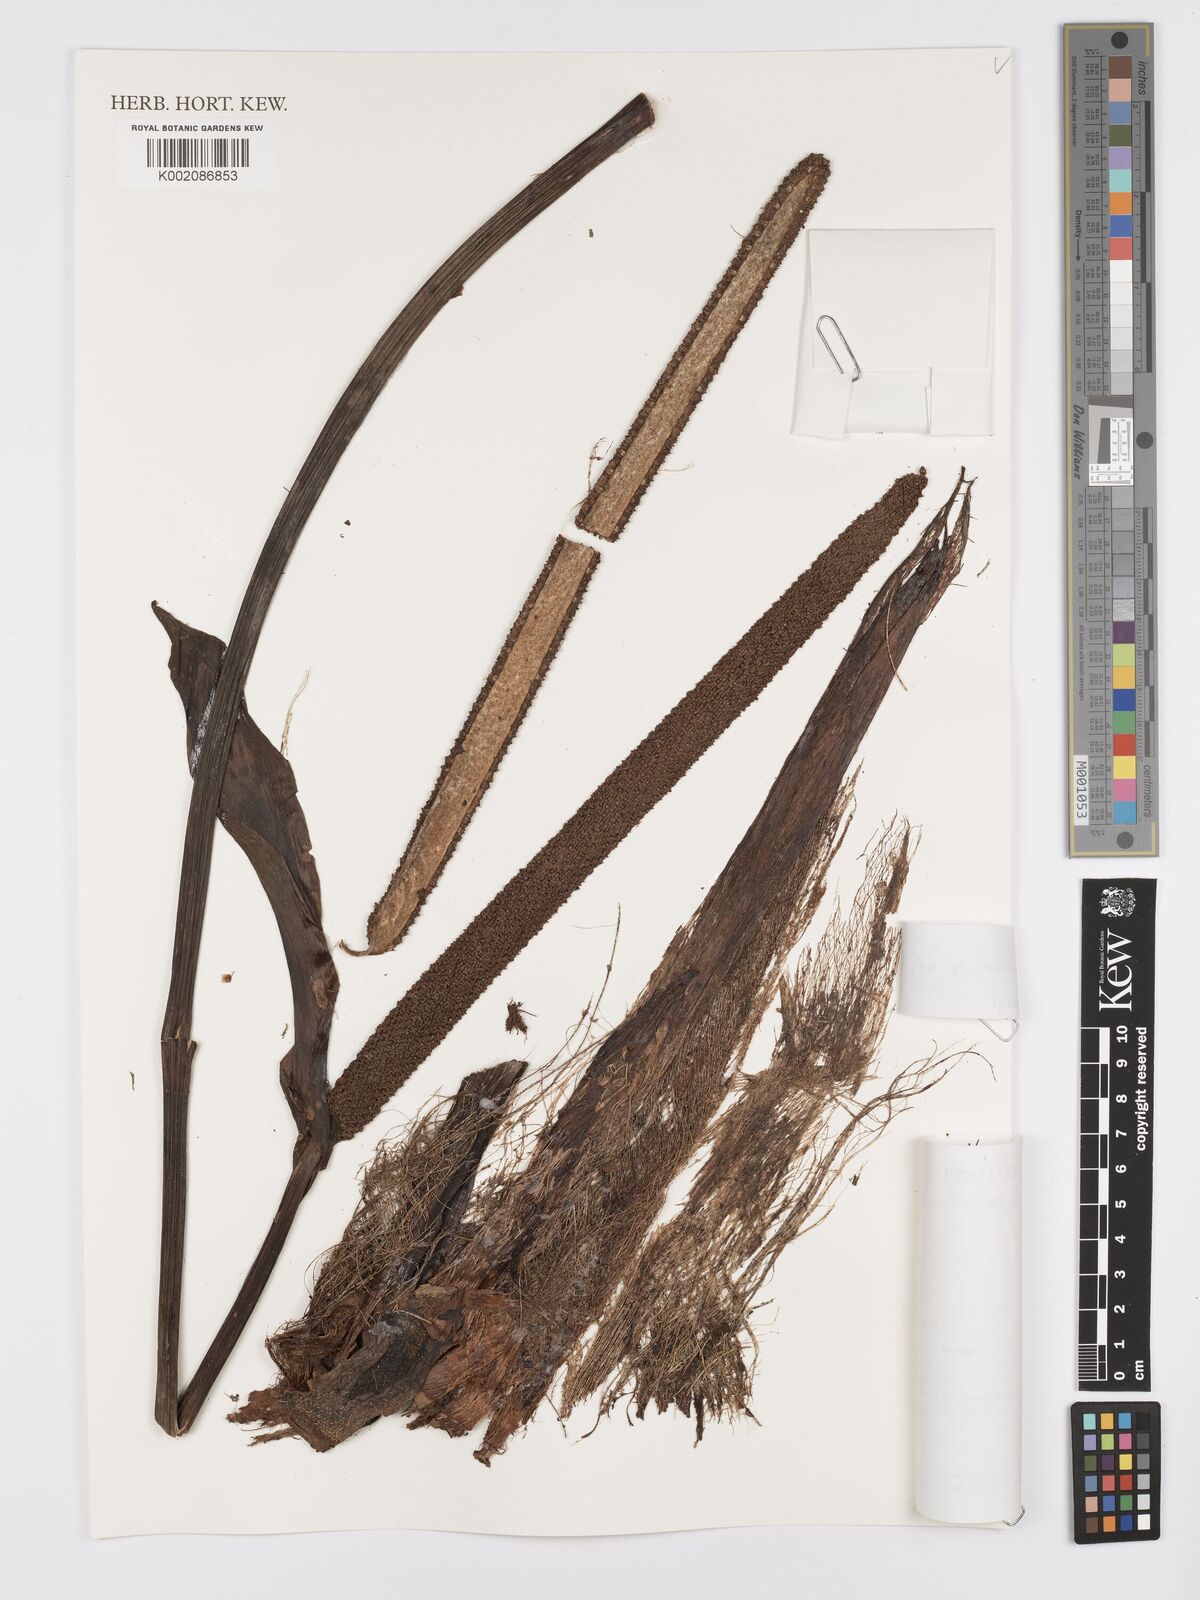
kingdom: Plantae
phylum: Tracheophyta
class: Liliopsida
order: Alismatales
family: Araceae
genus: Anthurium
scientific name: Anthurium ptarianum
